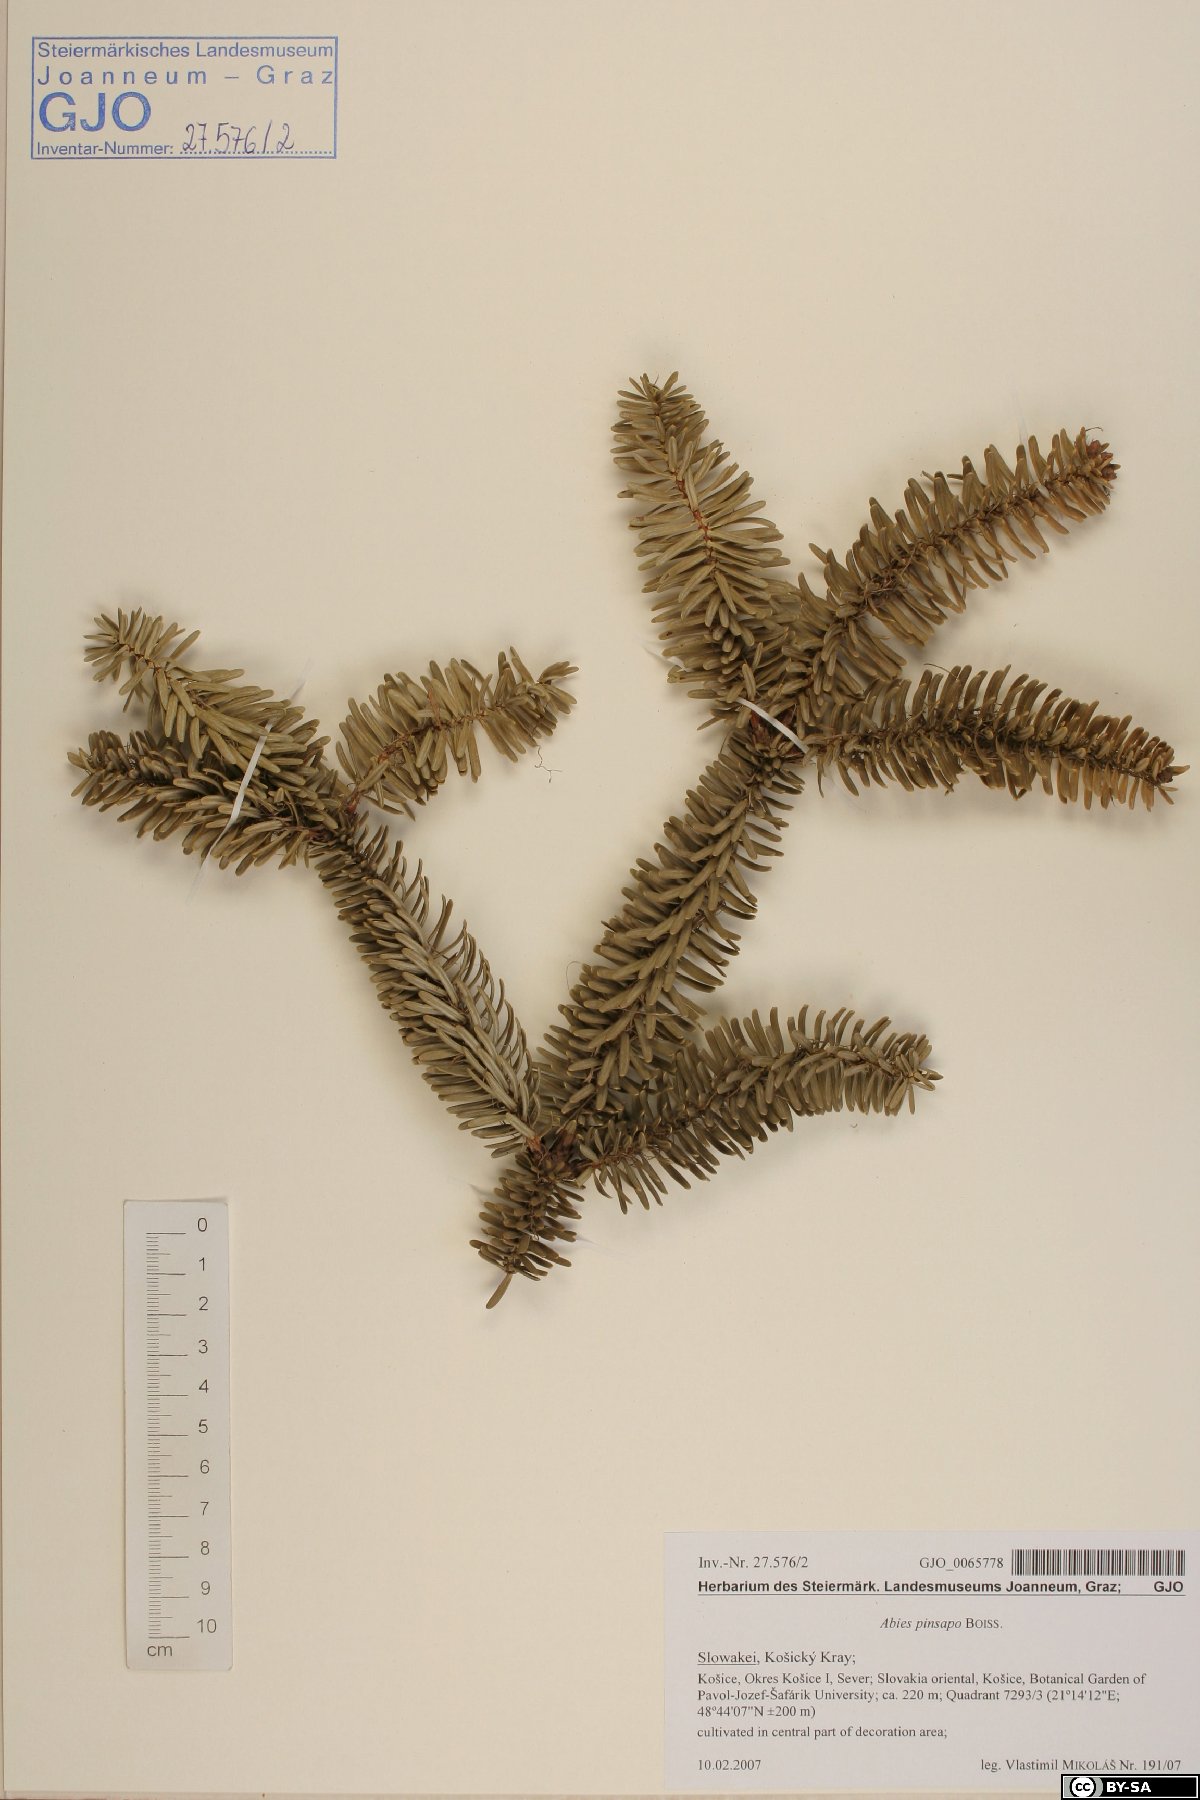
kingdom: Plantae
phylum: Tracheophyta
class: Pinopsida
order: Pinales
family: Pinaceae
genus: Abies
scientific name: Abies pinsapo
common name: Spanish fir
